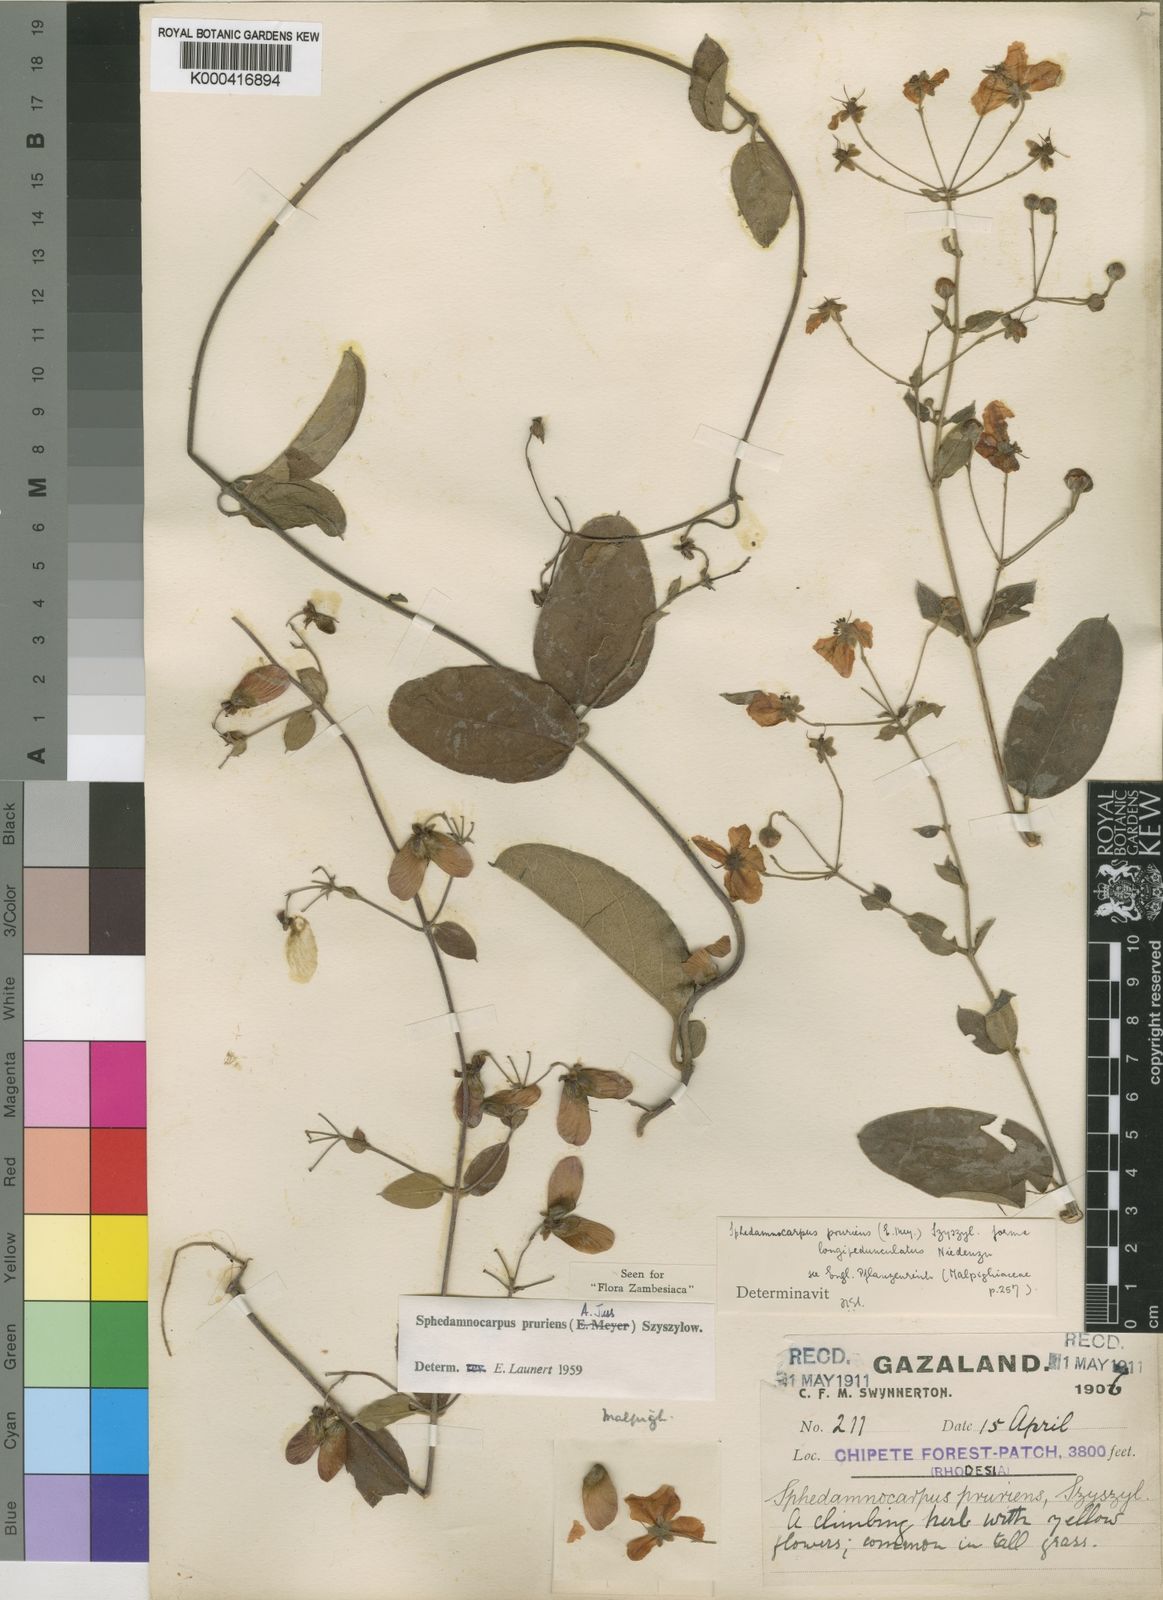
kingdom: Plantae
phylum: Tracheophyta
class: Magnoliopsida
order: Malpighiales
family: Malpighiaceae
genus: Sphedamnocarpus
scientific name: Sphedamnocarpus pruriens
